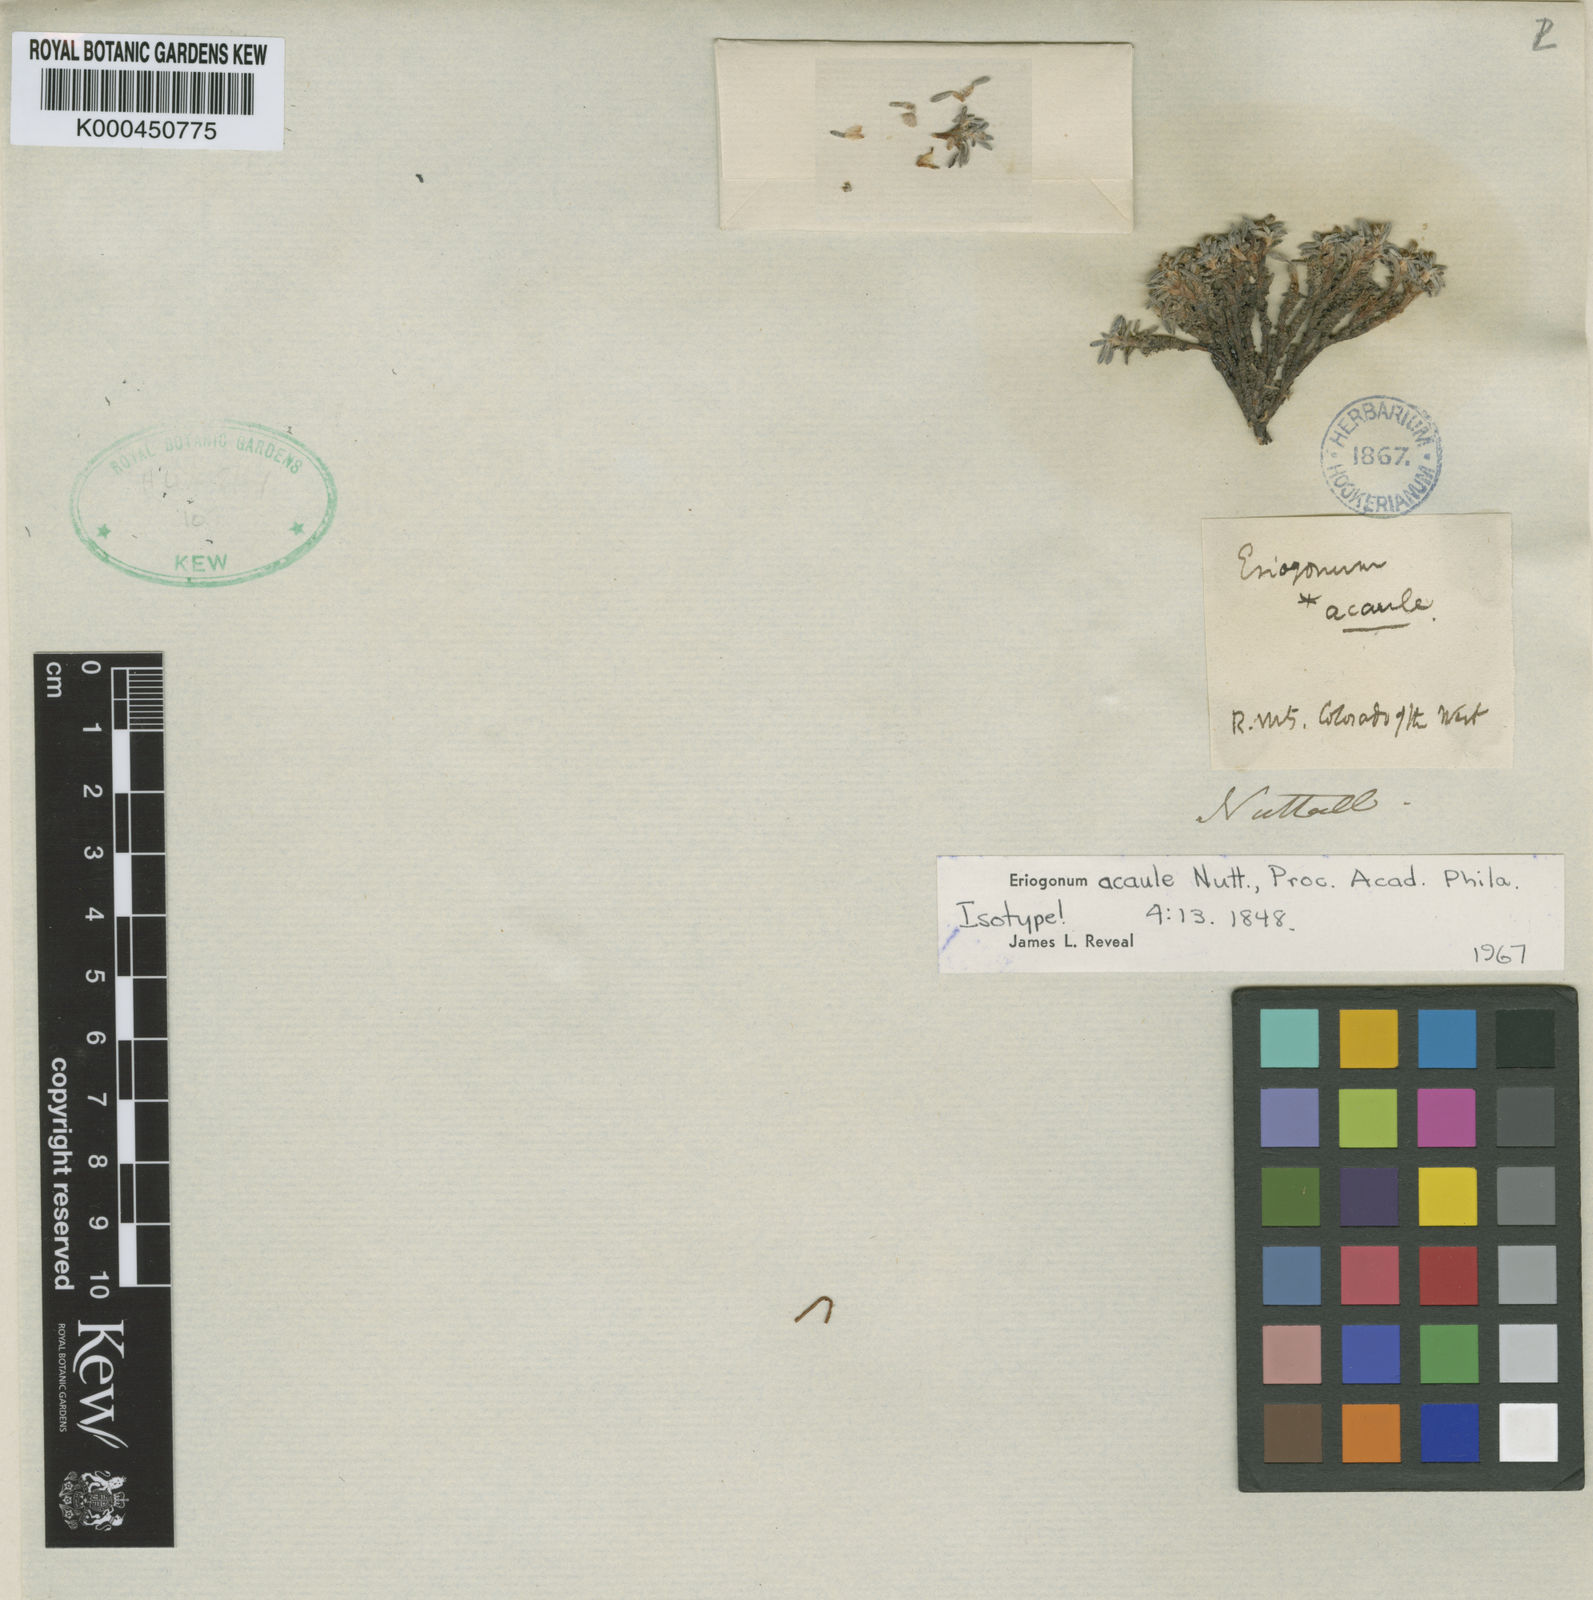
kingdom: Plantae
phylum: Tracheophyta
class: Magnoliopsida
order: Caryophyllales
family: Polygonaceae
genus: Eriogonum
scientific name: Eriogonum acaule
